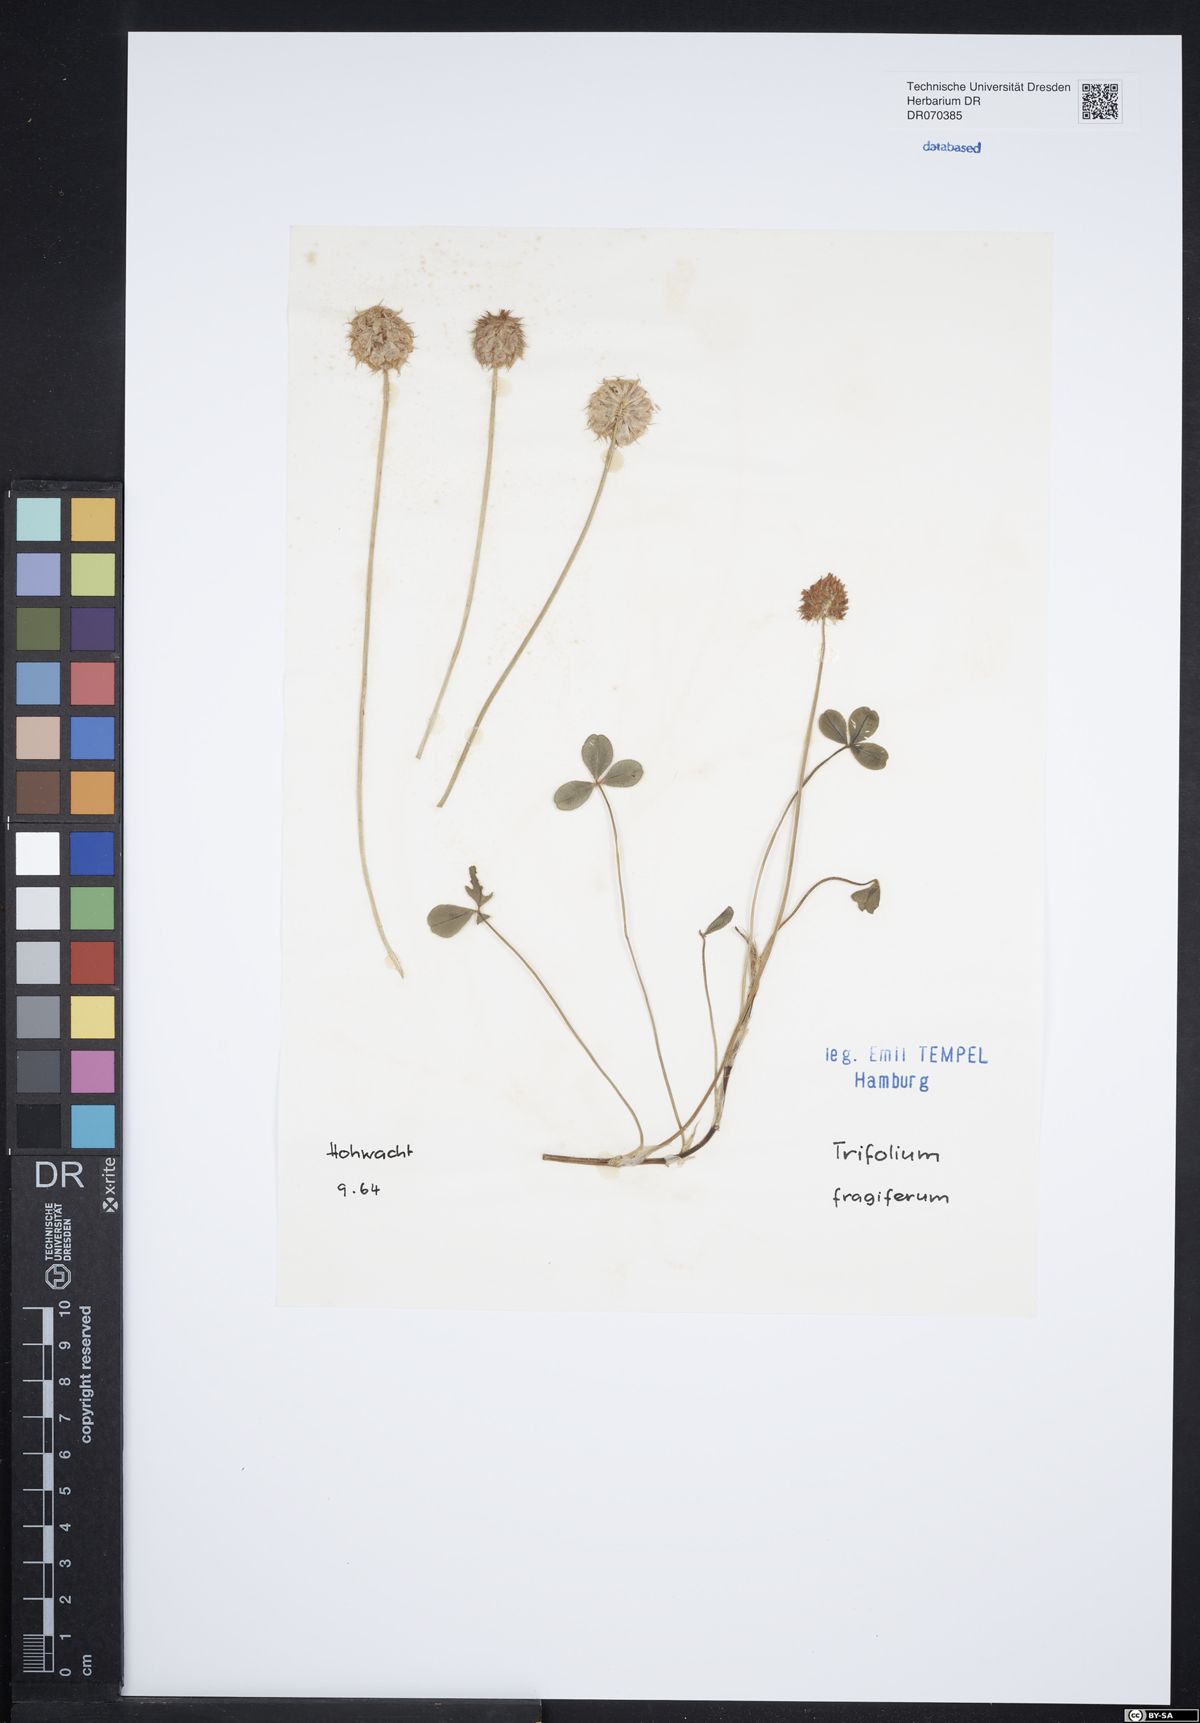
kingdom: Plantae
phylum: Tracheophyta
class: Magnoliopsida
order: Fabales
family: Fabaceae
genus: Trifolium
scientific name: Trifolium fragiferum
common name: Strawberry clover
